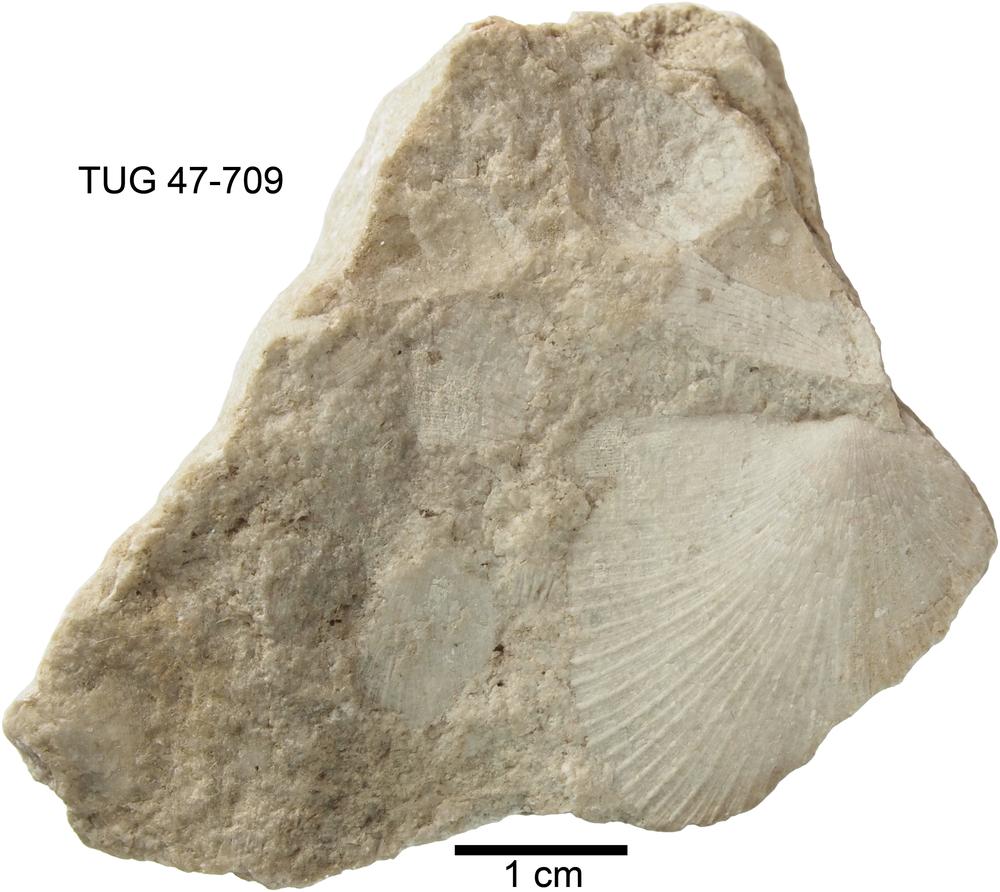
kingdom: Animalia
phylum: Brachiopoda
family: Leptostrophiidae
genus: Eostropheodonta
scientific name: Eostropheodonta Strophomena luna
